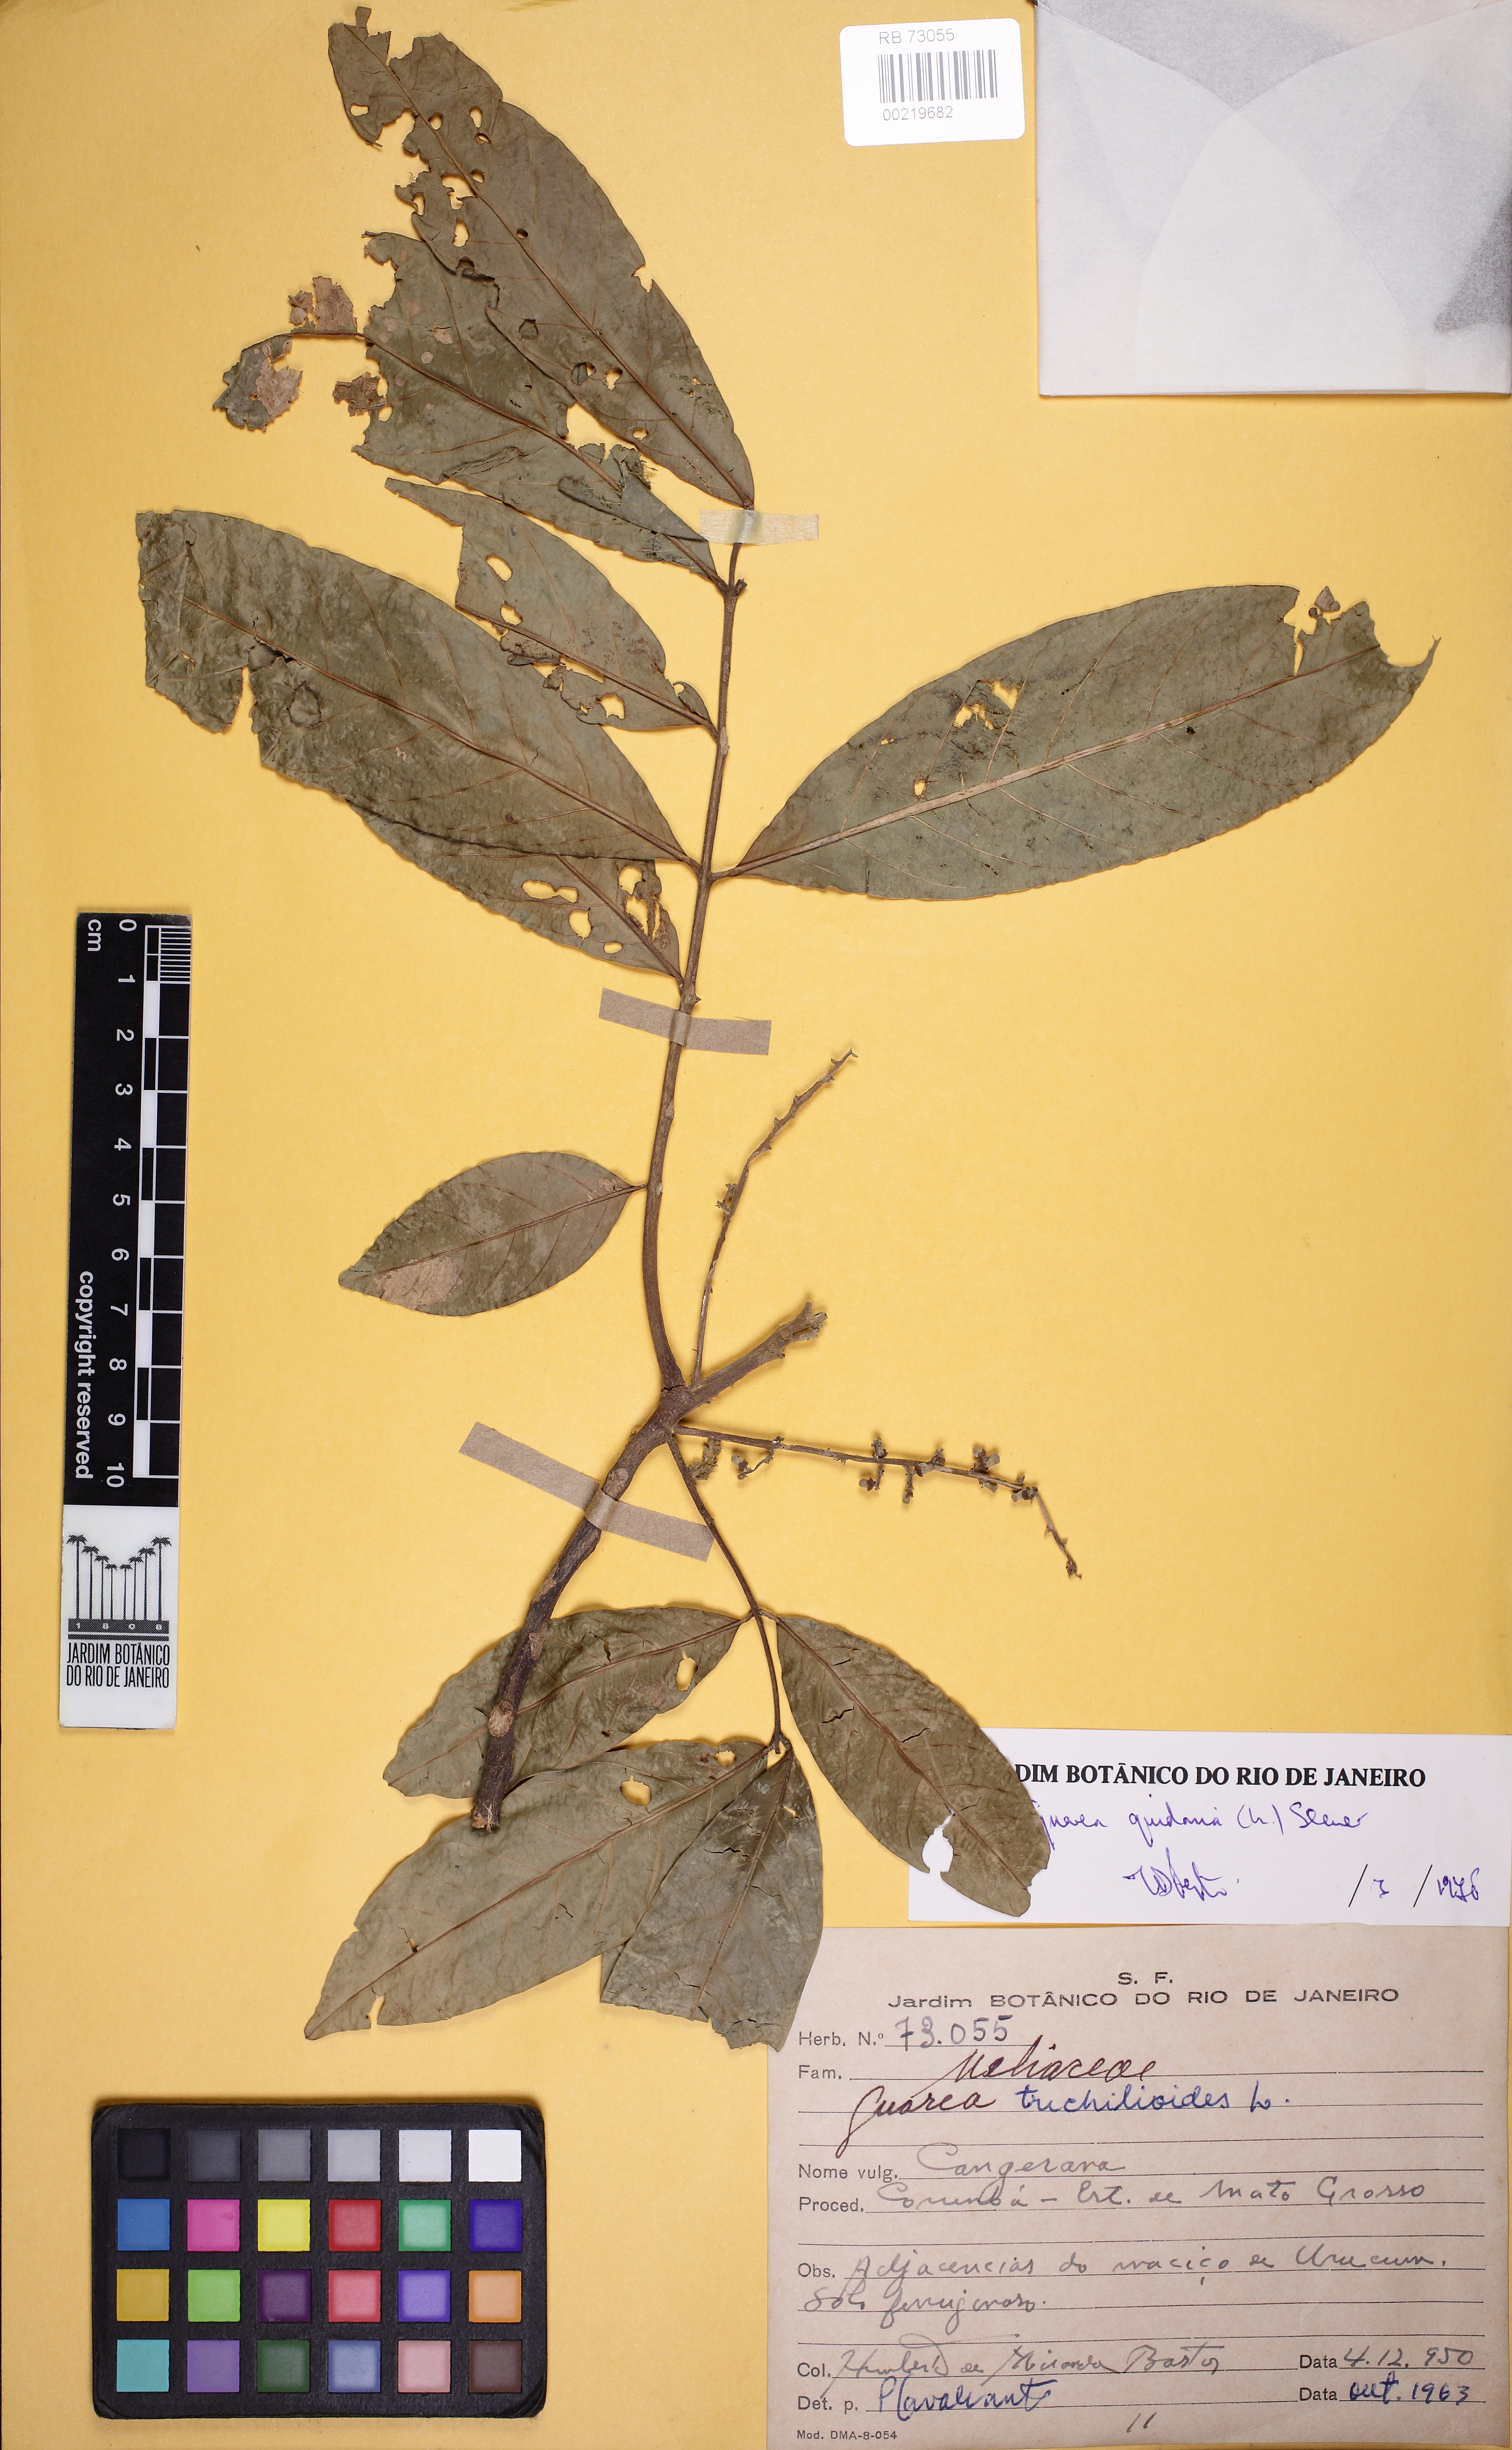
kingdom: Plantae
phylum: Tracheophyta
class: Magnoliopsida
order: Sapindales
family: Meliaceae
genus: Guarea
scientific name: Guarea guidonia
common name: American muskwood
